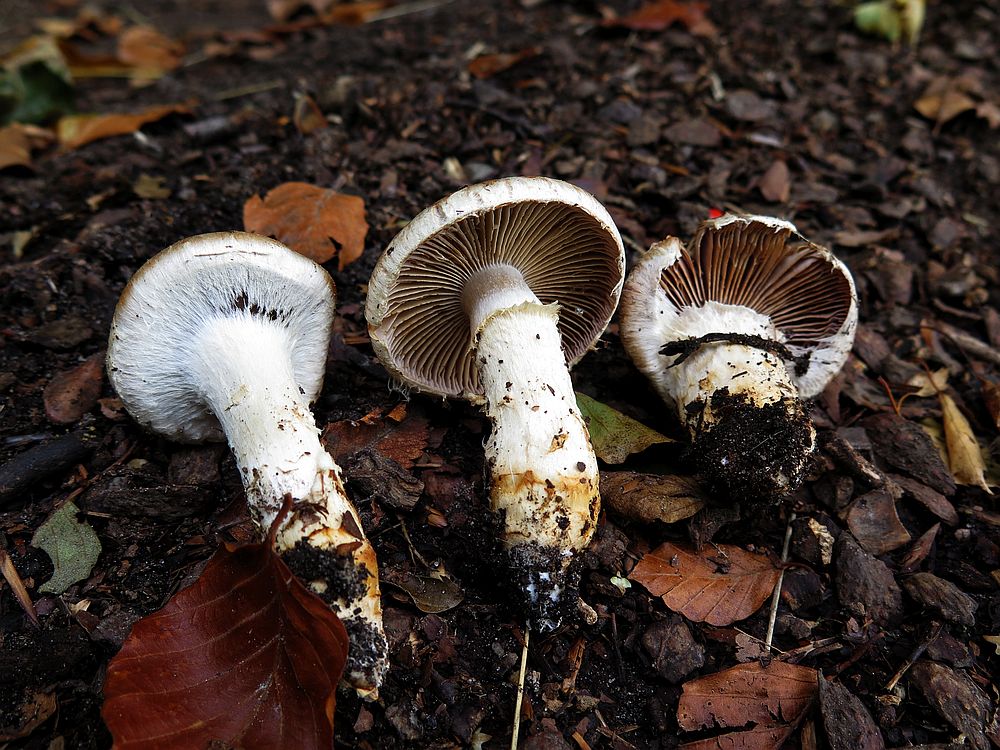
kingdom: Fungi
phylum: Basidiomycota
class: Agaricomycetes
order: Agaricales
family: Cortinariaceae
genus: Phlegmacium
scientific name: Phlegmacium vulpinum
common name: ringbæltet slørhat
